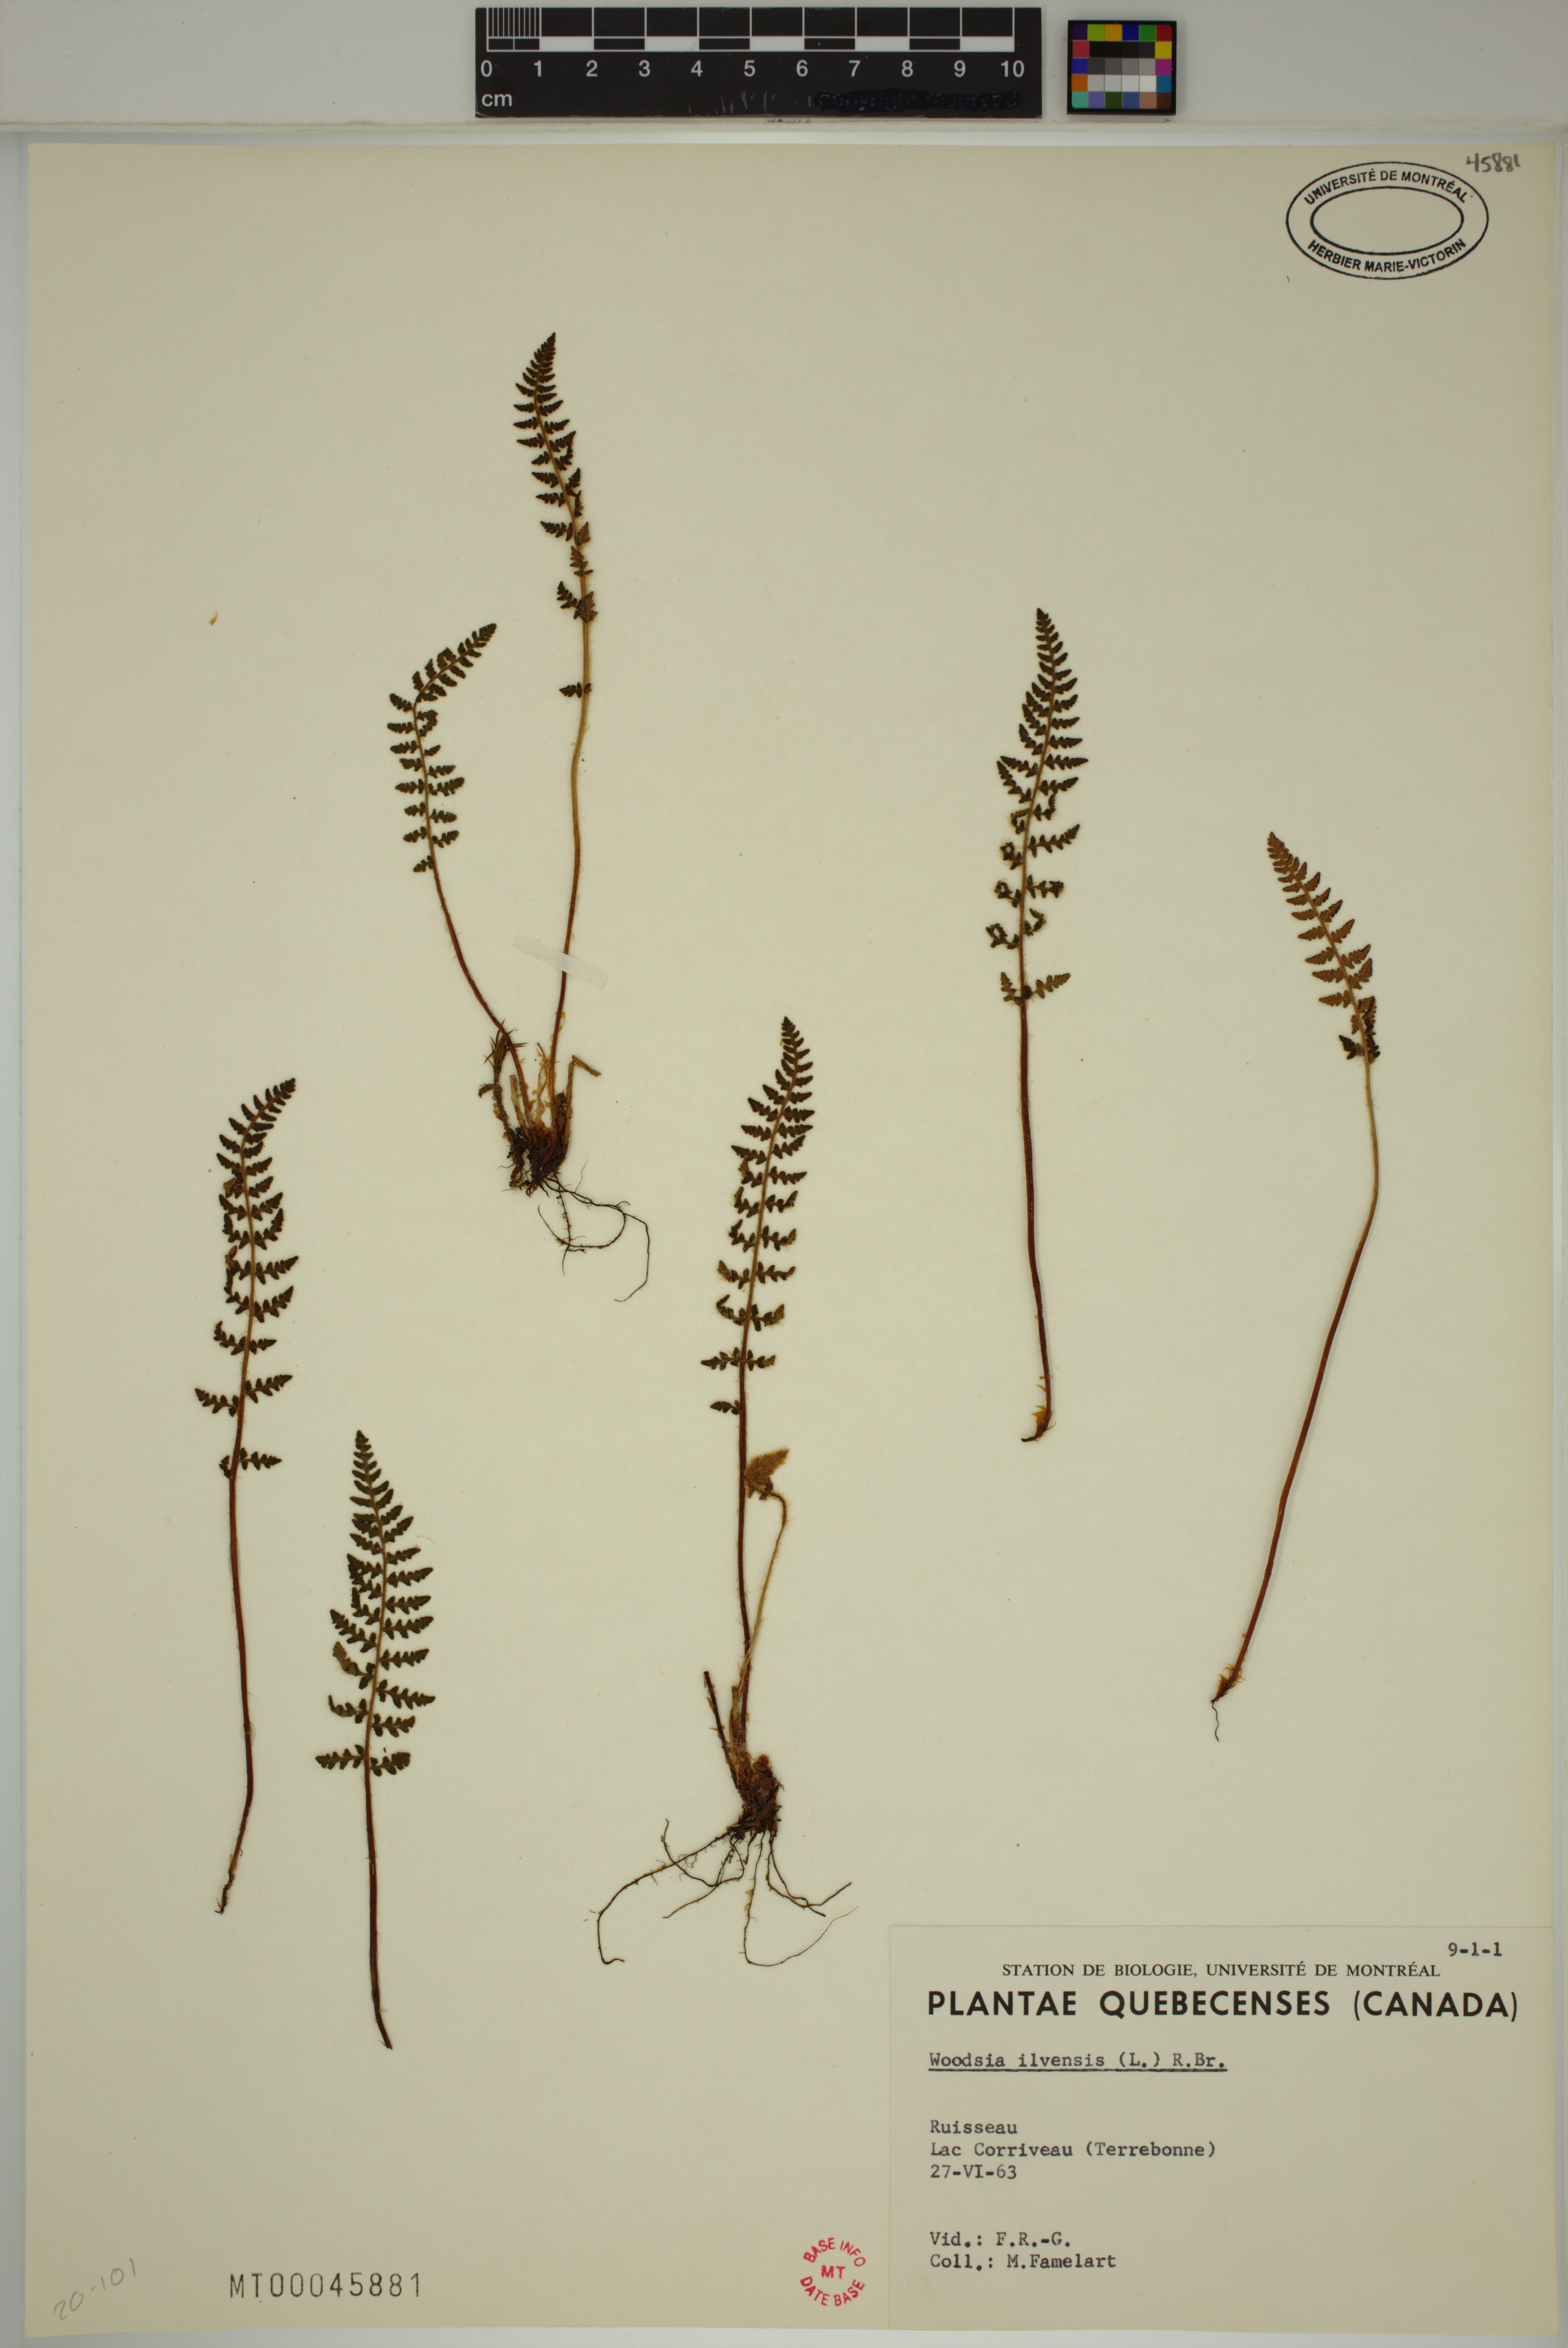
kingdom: Plantae
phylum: Tracheophyta
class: Polypodiopsida
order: Polypodiales
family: Woodsiaceae
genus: Woodsia
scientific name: Woodsia ilvensis
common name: Fragrant woodsia
